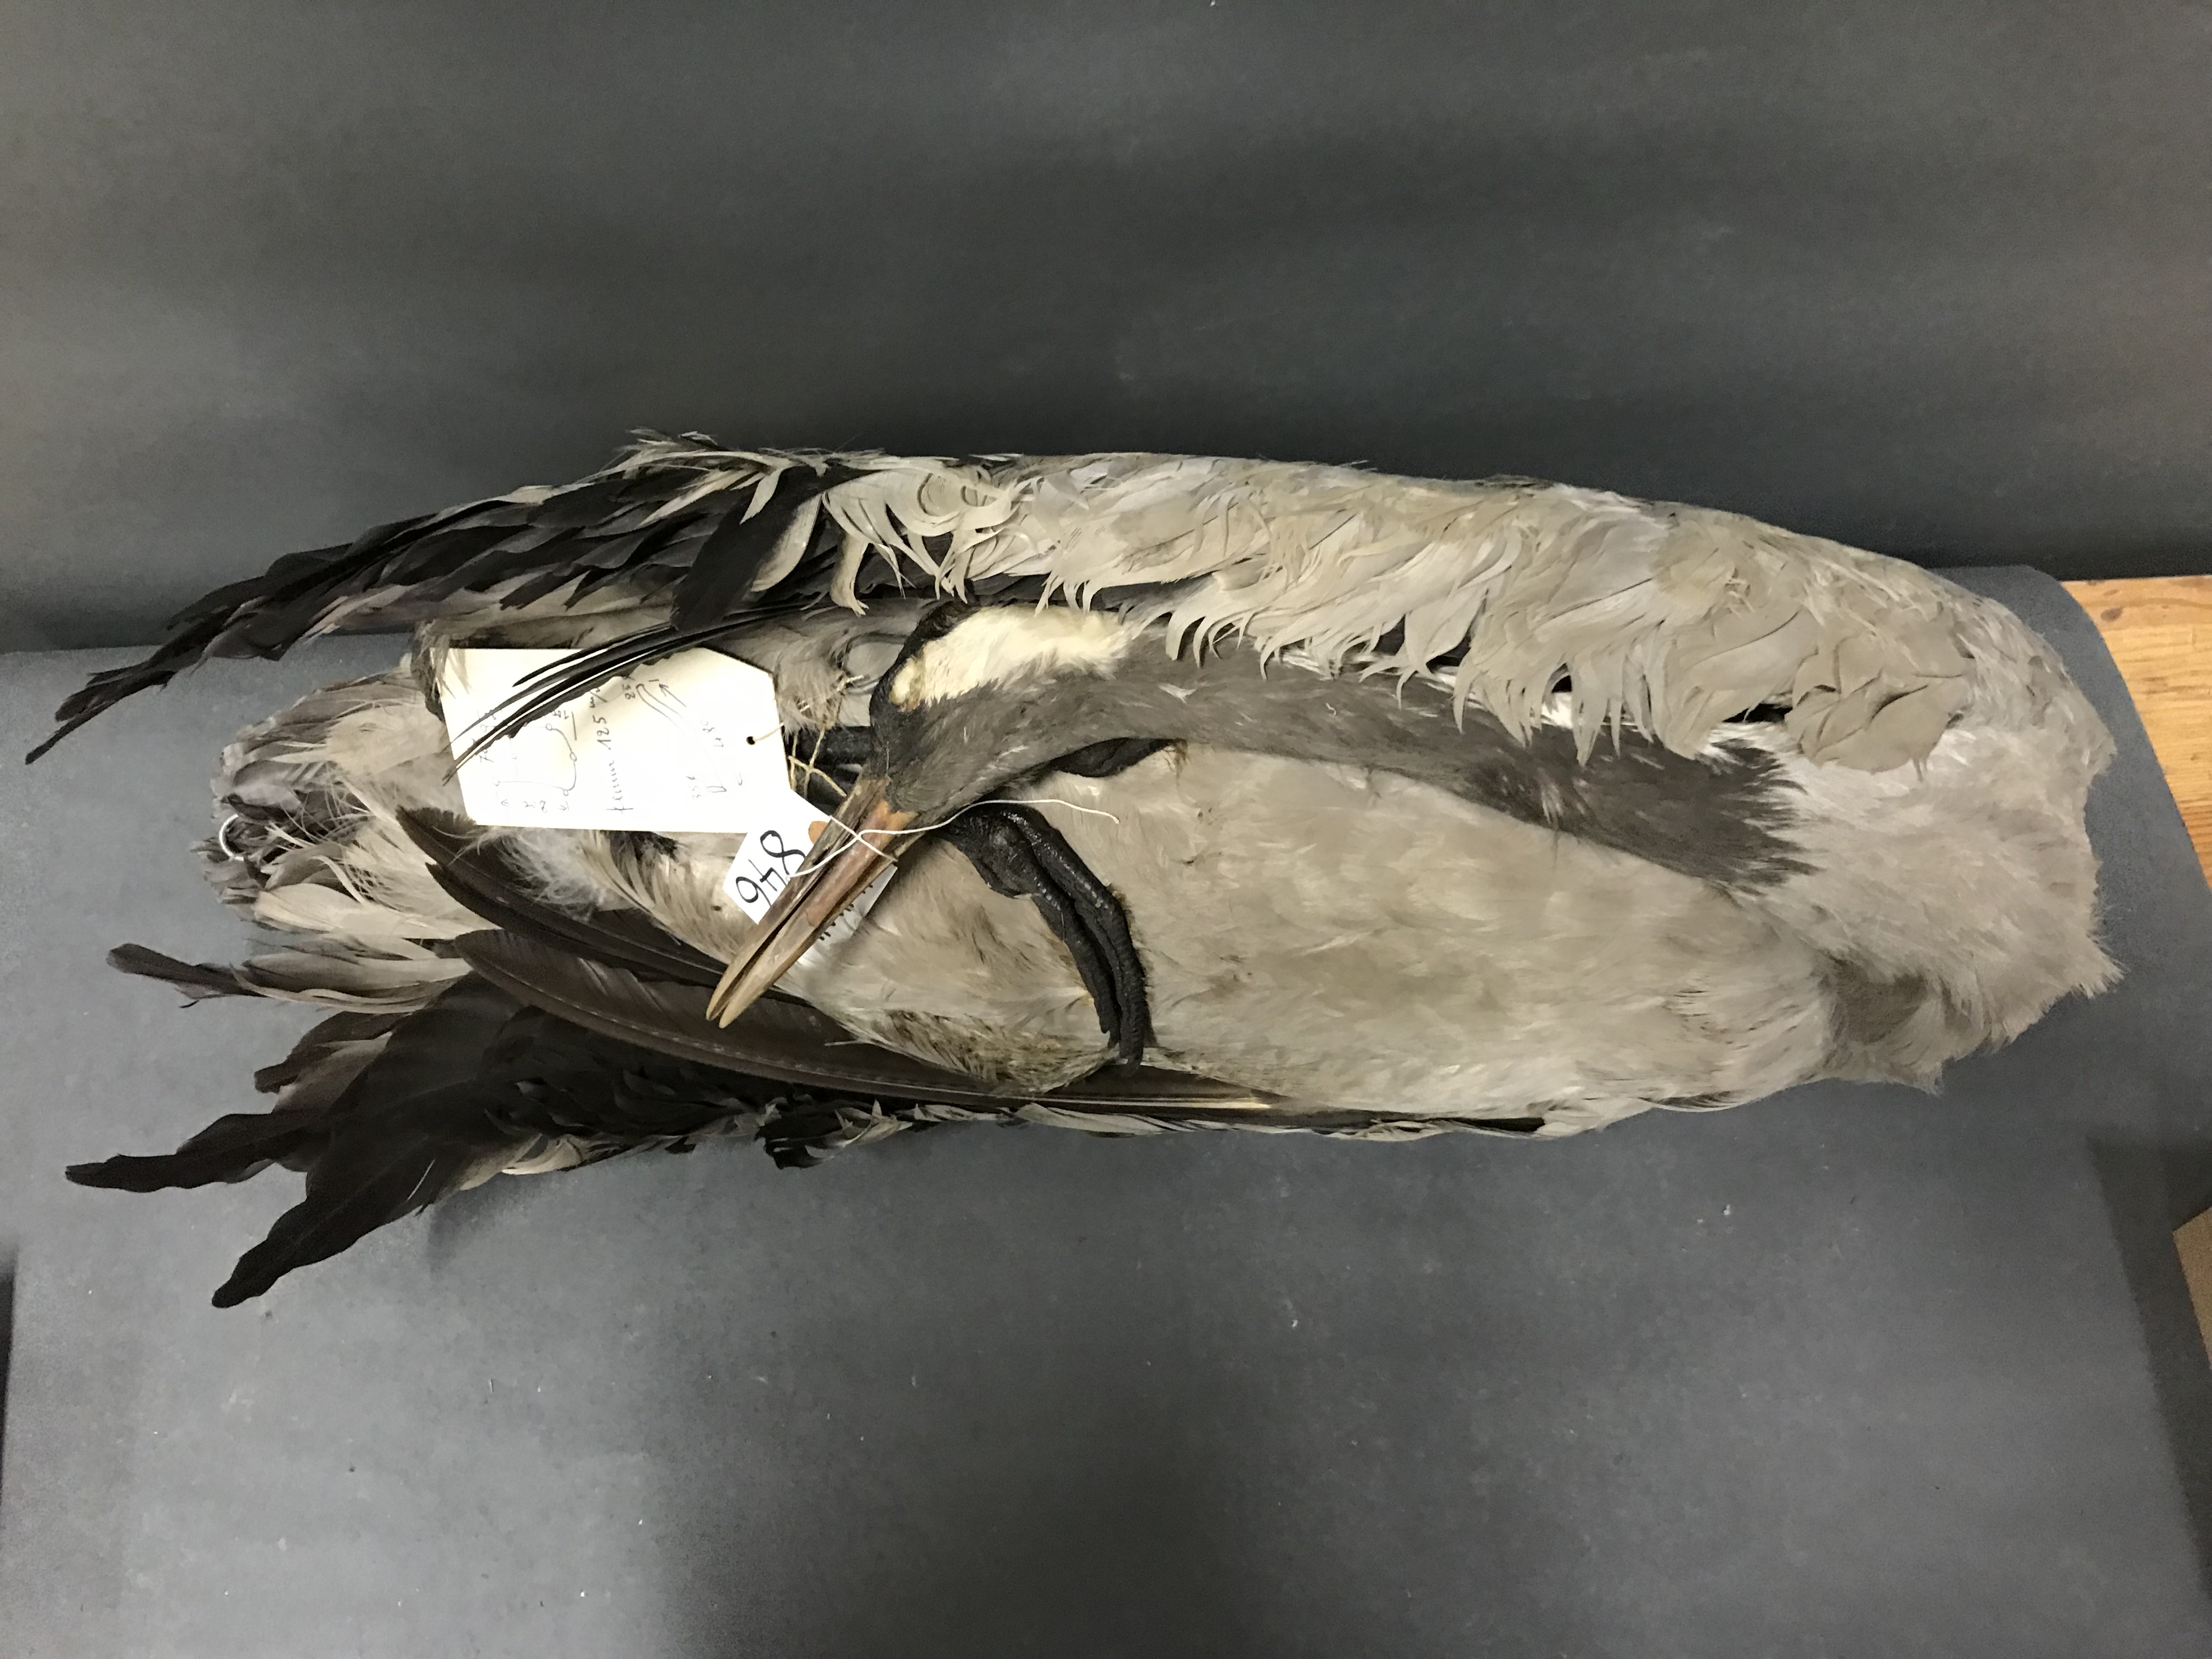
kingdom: Animalia
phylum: Chordata
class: Aves
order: Gruiformes
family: Gruidae
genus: Grus
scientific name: Grus grus
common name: Common crane
